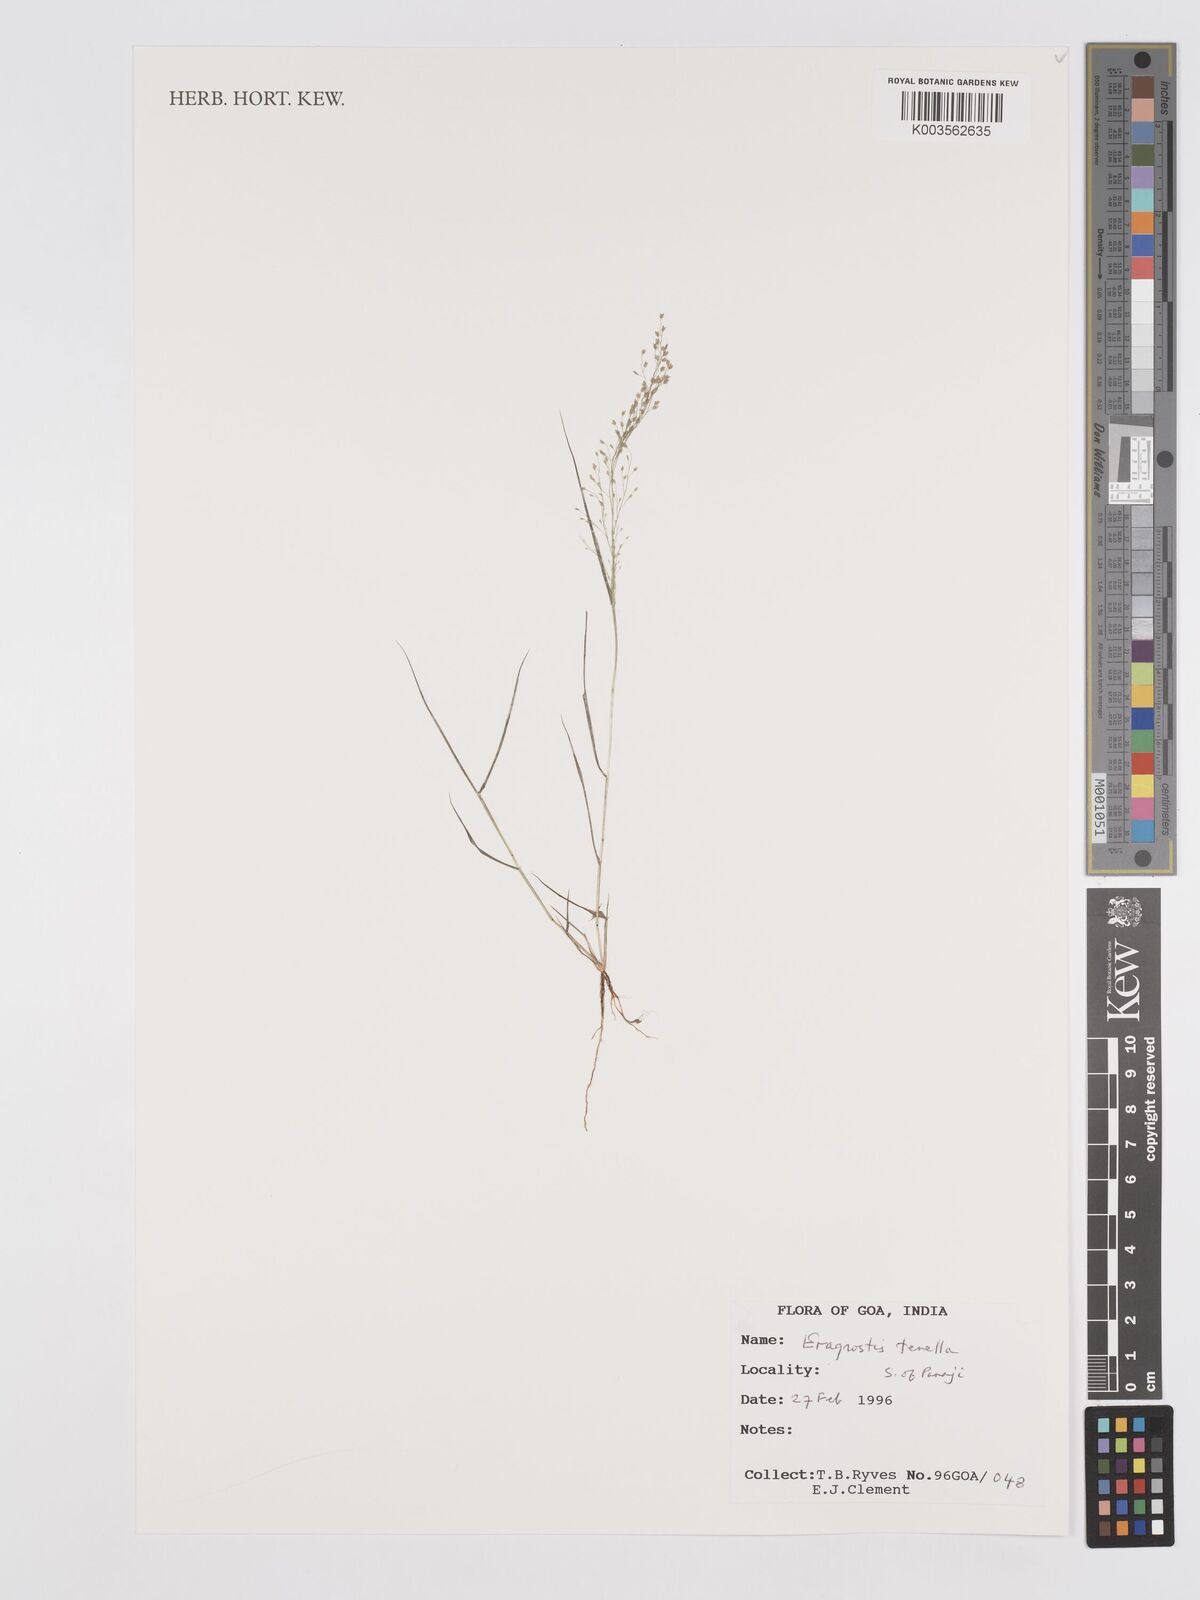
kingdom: Plantae
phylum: Tracheophyta
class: Liliopsida
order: Poales
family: Poaceae
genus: Eragrostis
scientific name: Eragrostis tenella
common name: Japanese lovegrass
